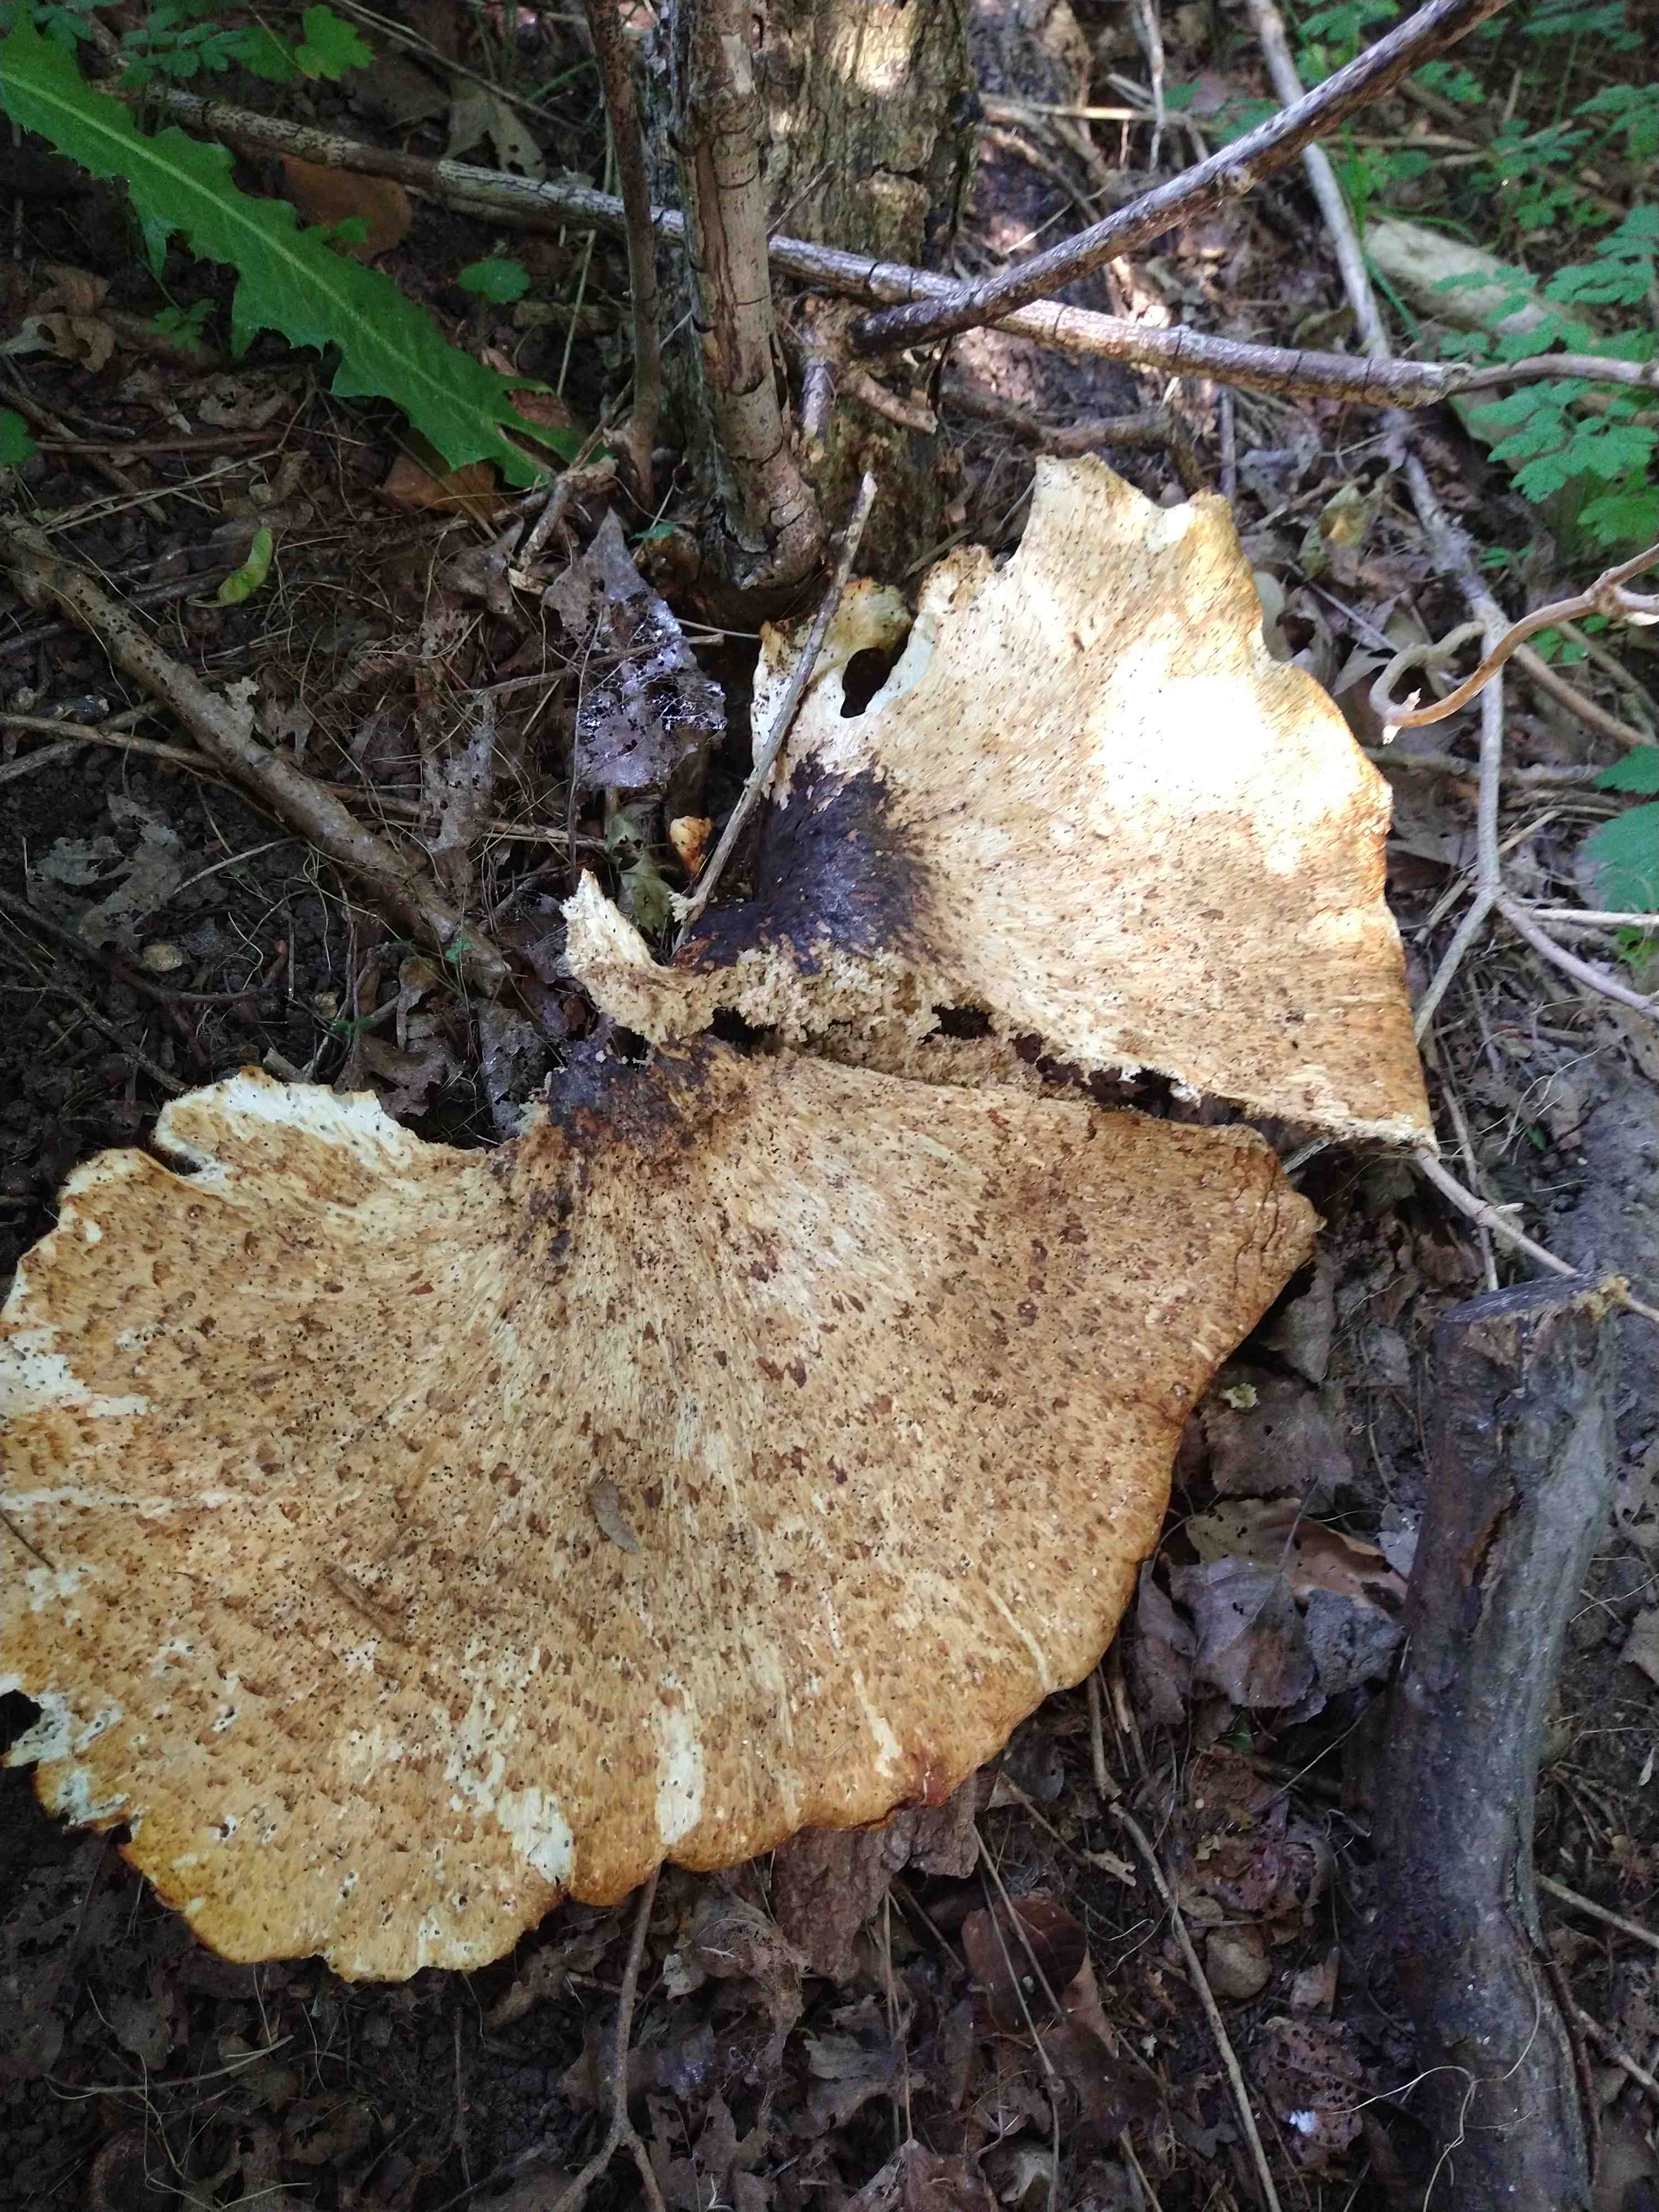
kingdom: Fungi
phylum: Basidiomycota
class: Agaricomycetes
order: Polyporales
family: Polyporaceae
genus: Cerioporus
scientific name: Cerioporus squamosus
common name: skællet stilkporesvamp
